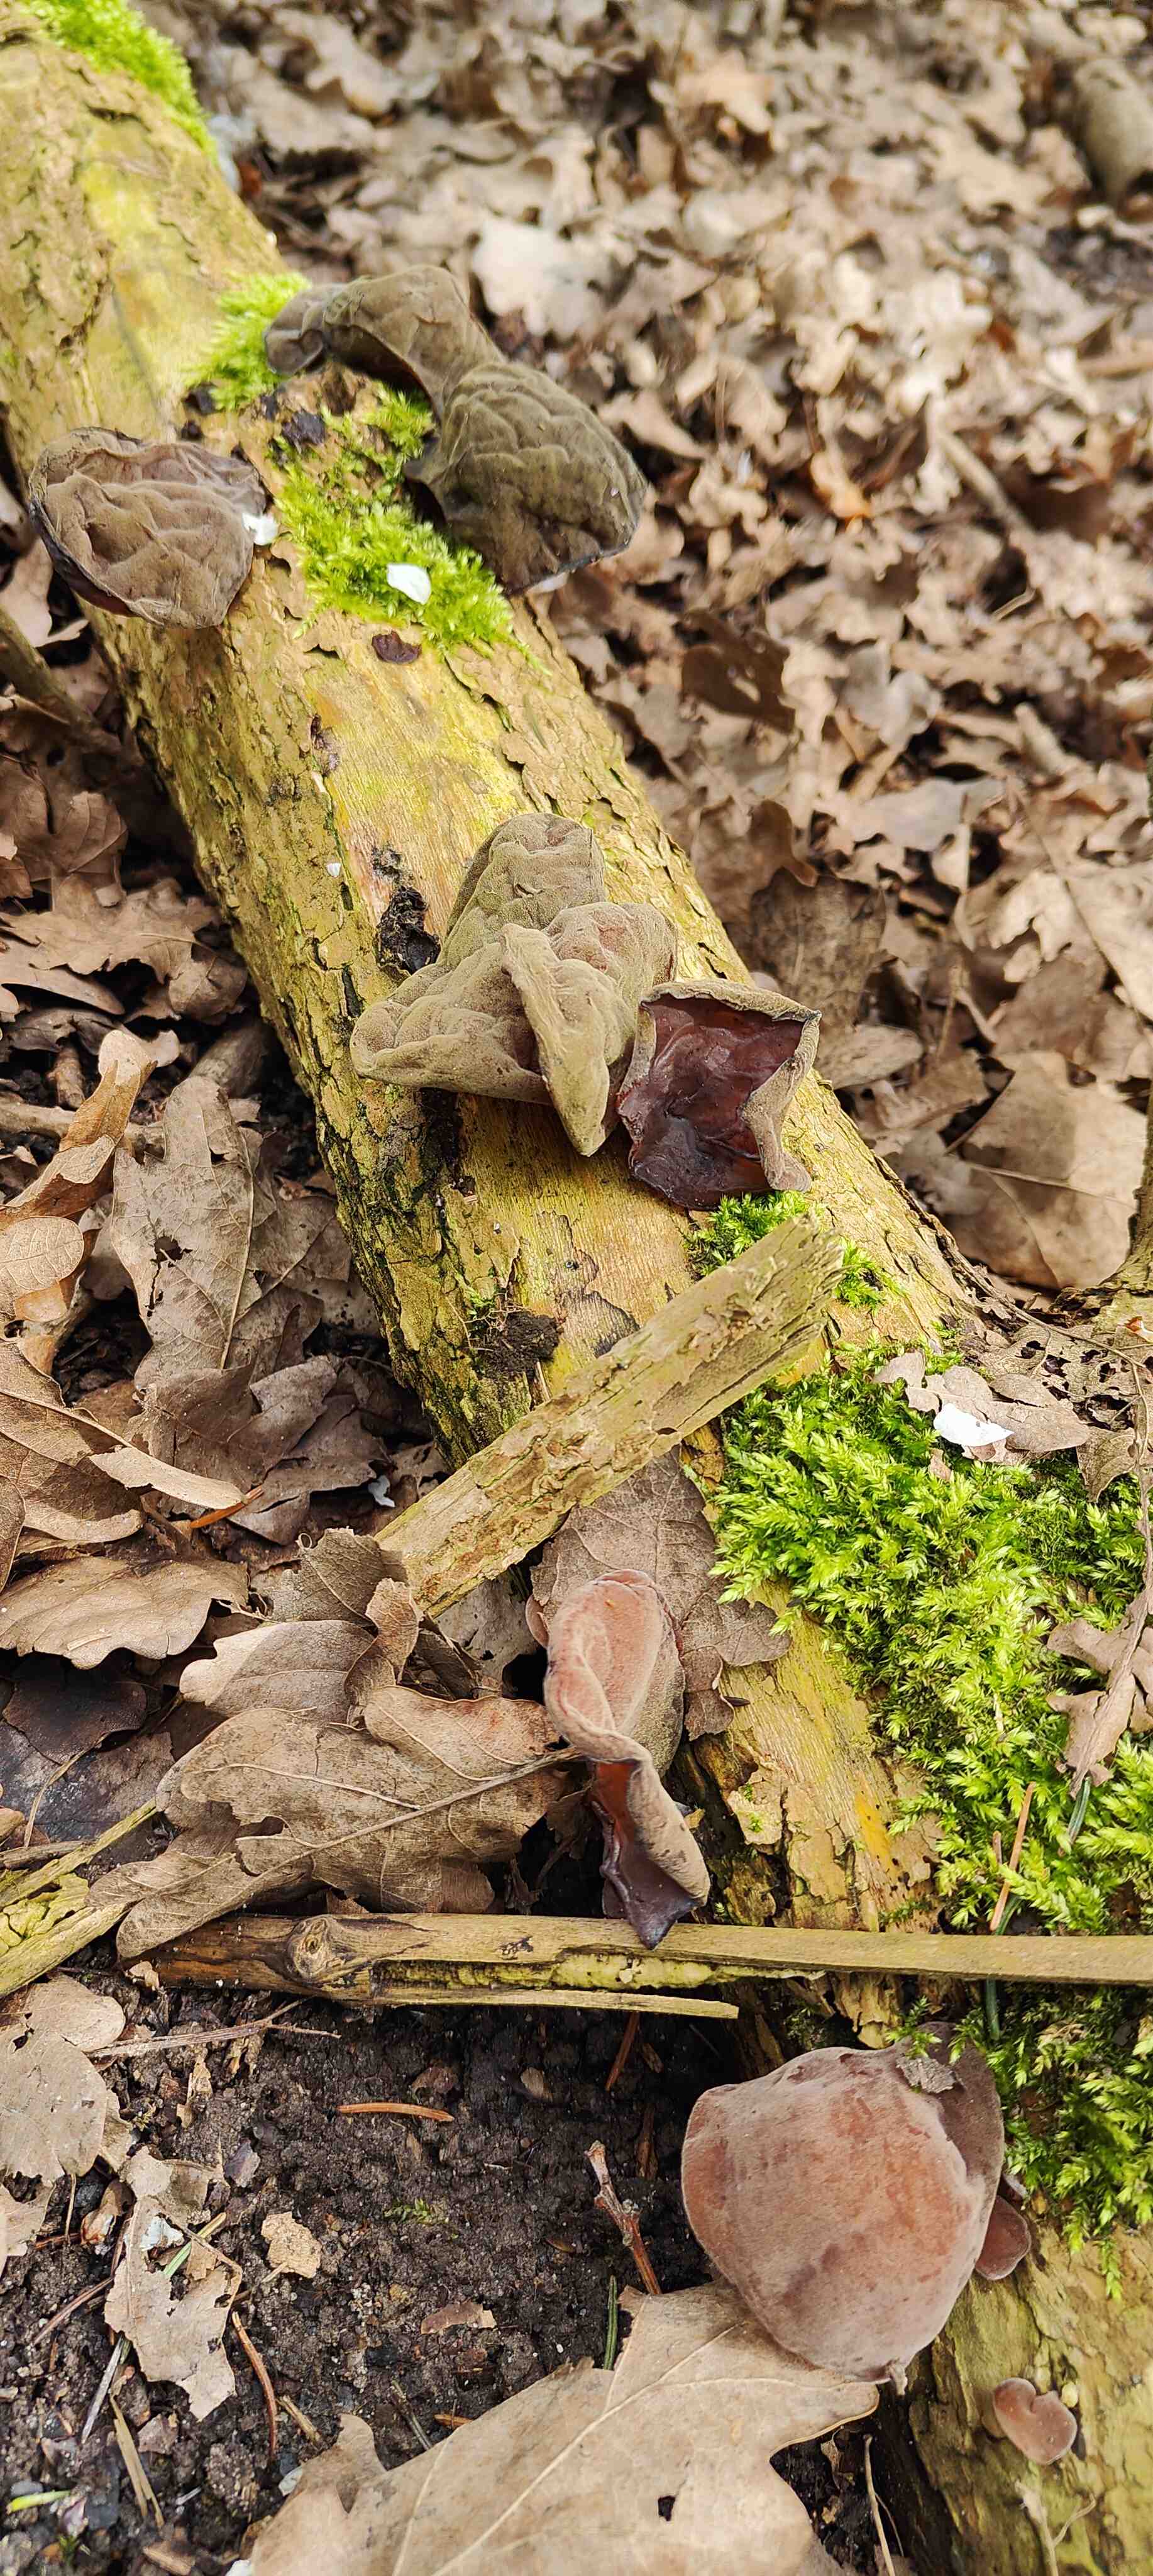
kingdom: Fungi
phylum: Basidiomycota
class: Agaricomycetes
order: Auriculariales
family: Auriculariaceae
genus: Auricularia
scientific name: Auricularia auricula-judae
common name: almindelig judasøre
